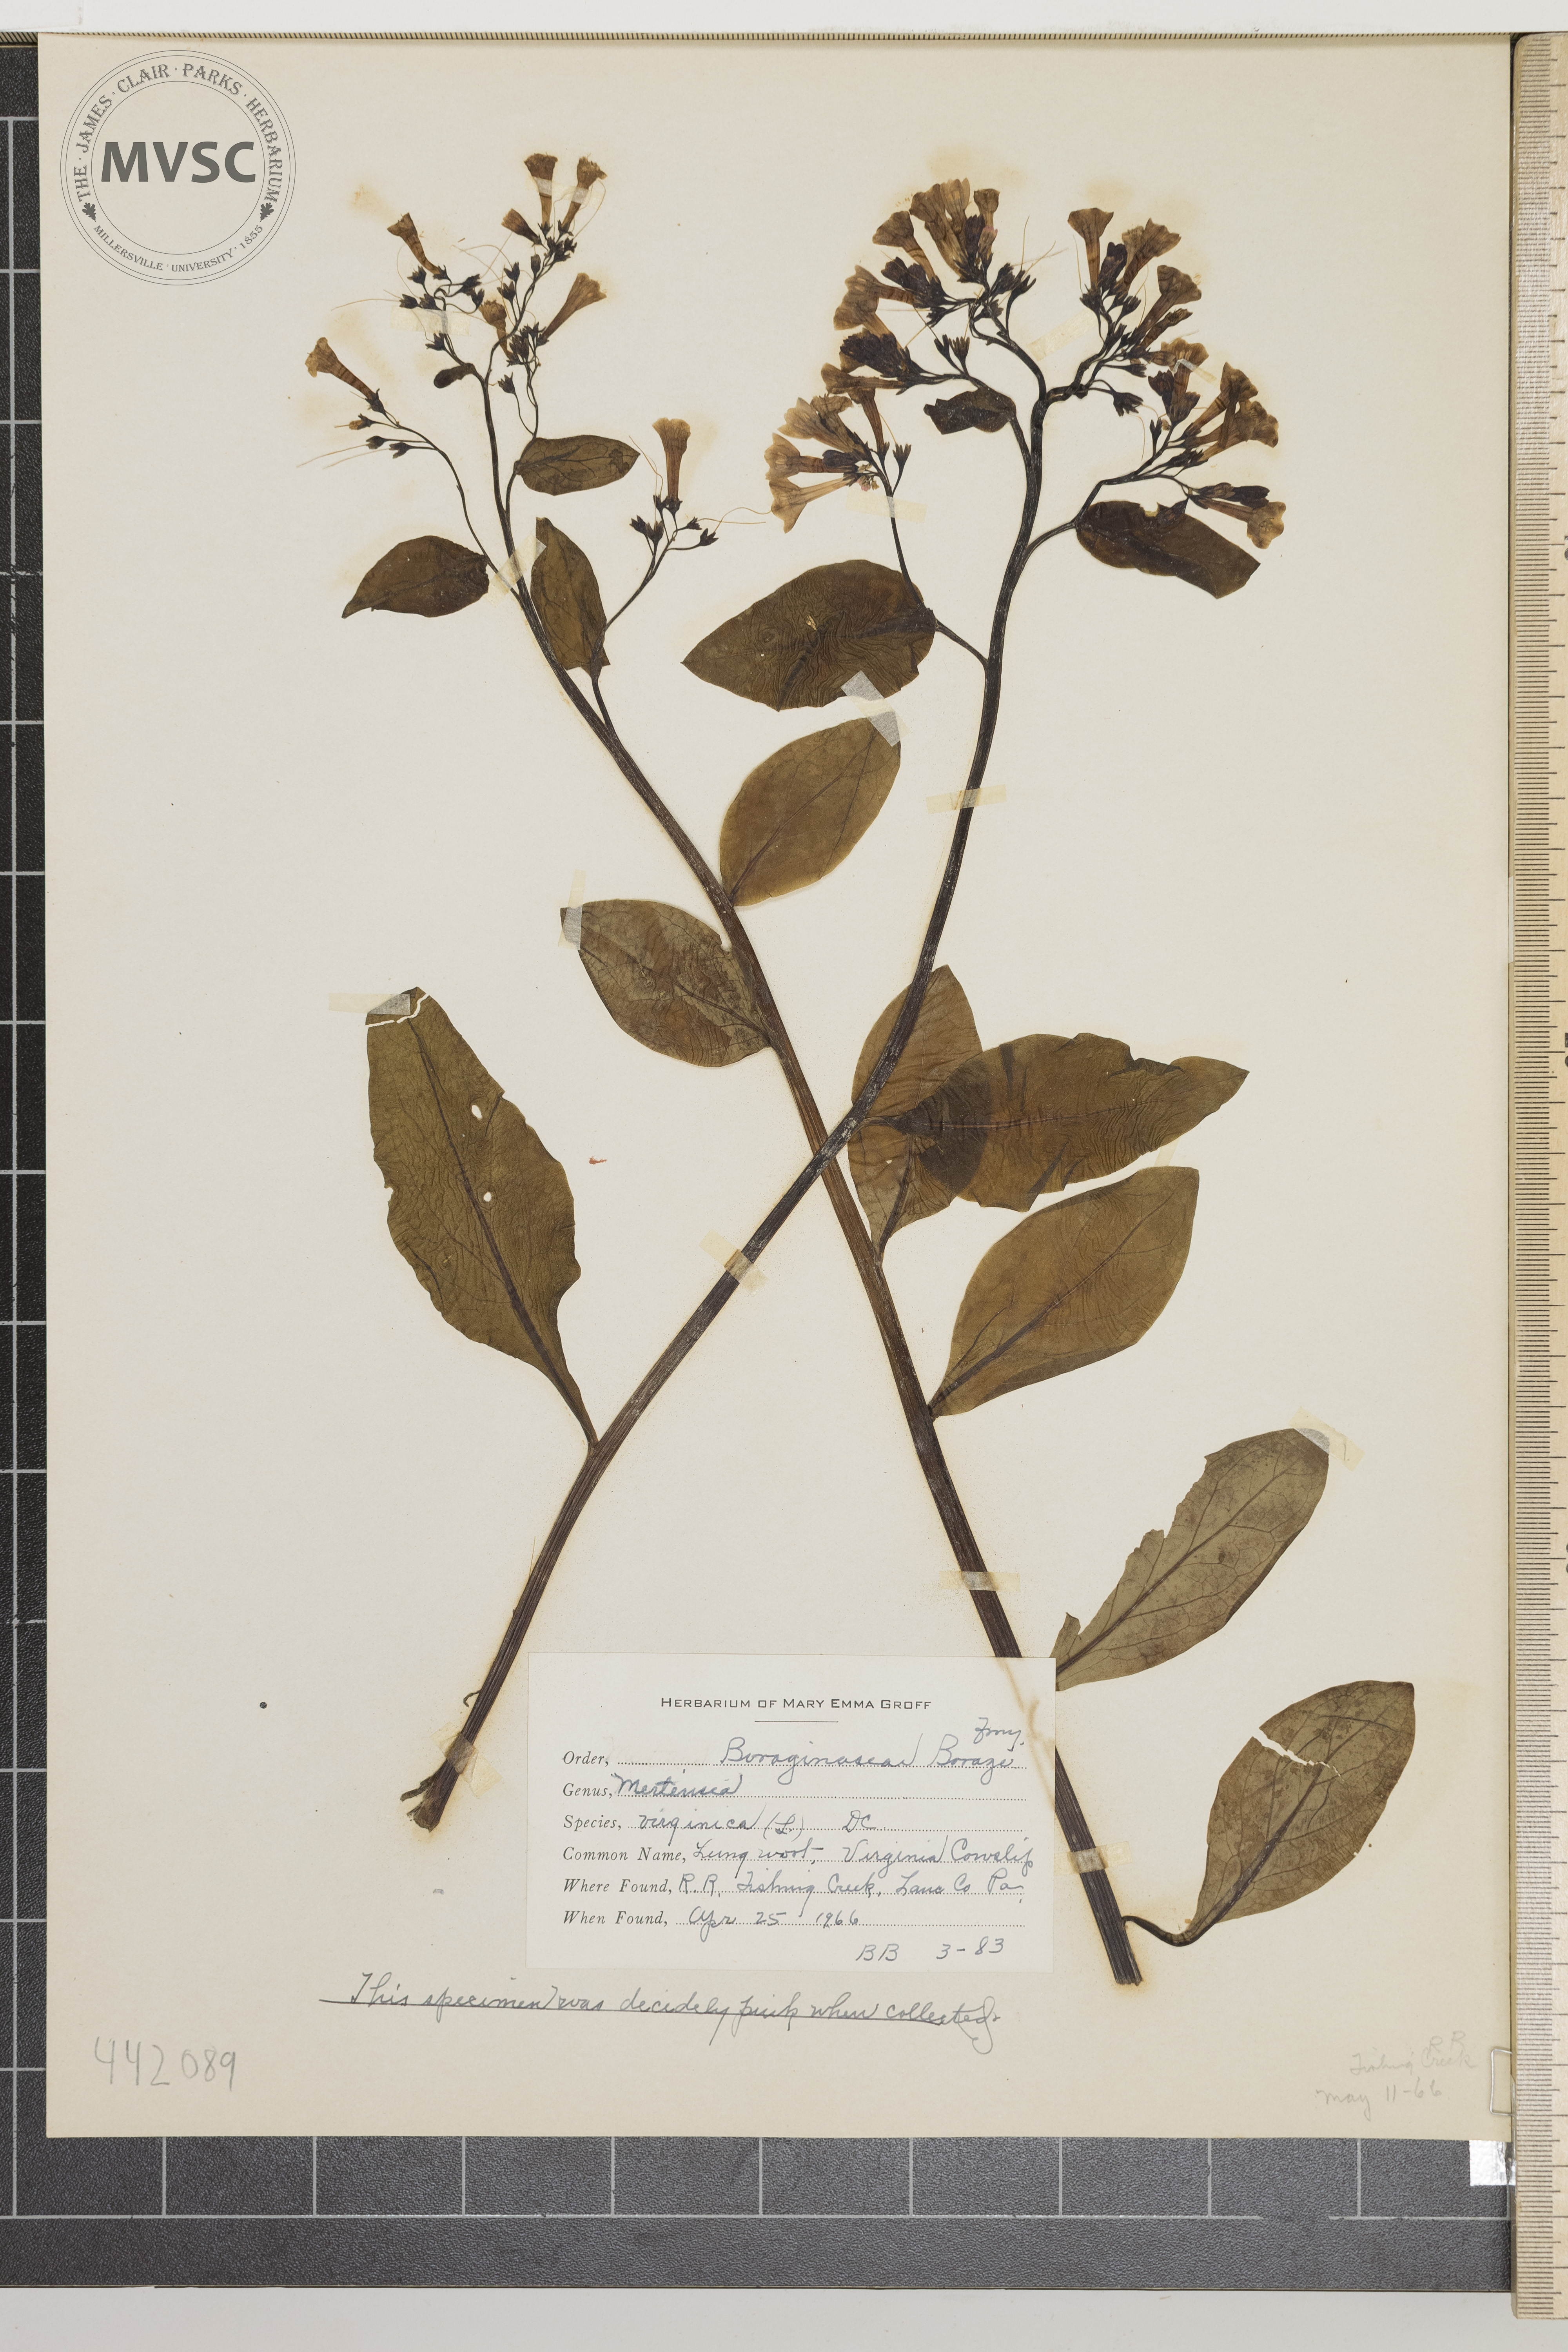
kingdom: Plantae
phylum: Tracheophyta
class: Magnoliopsida
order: Boraginales
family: Boraginaceae
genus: Mertensia
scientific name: Mertensia virginica
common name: Lungwort
